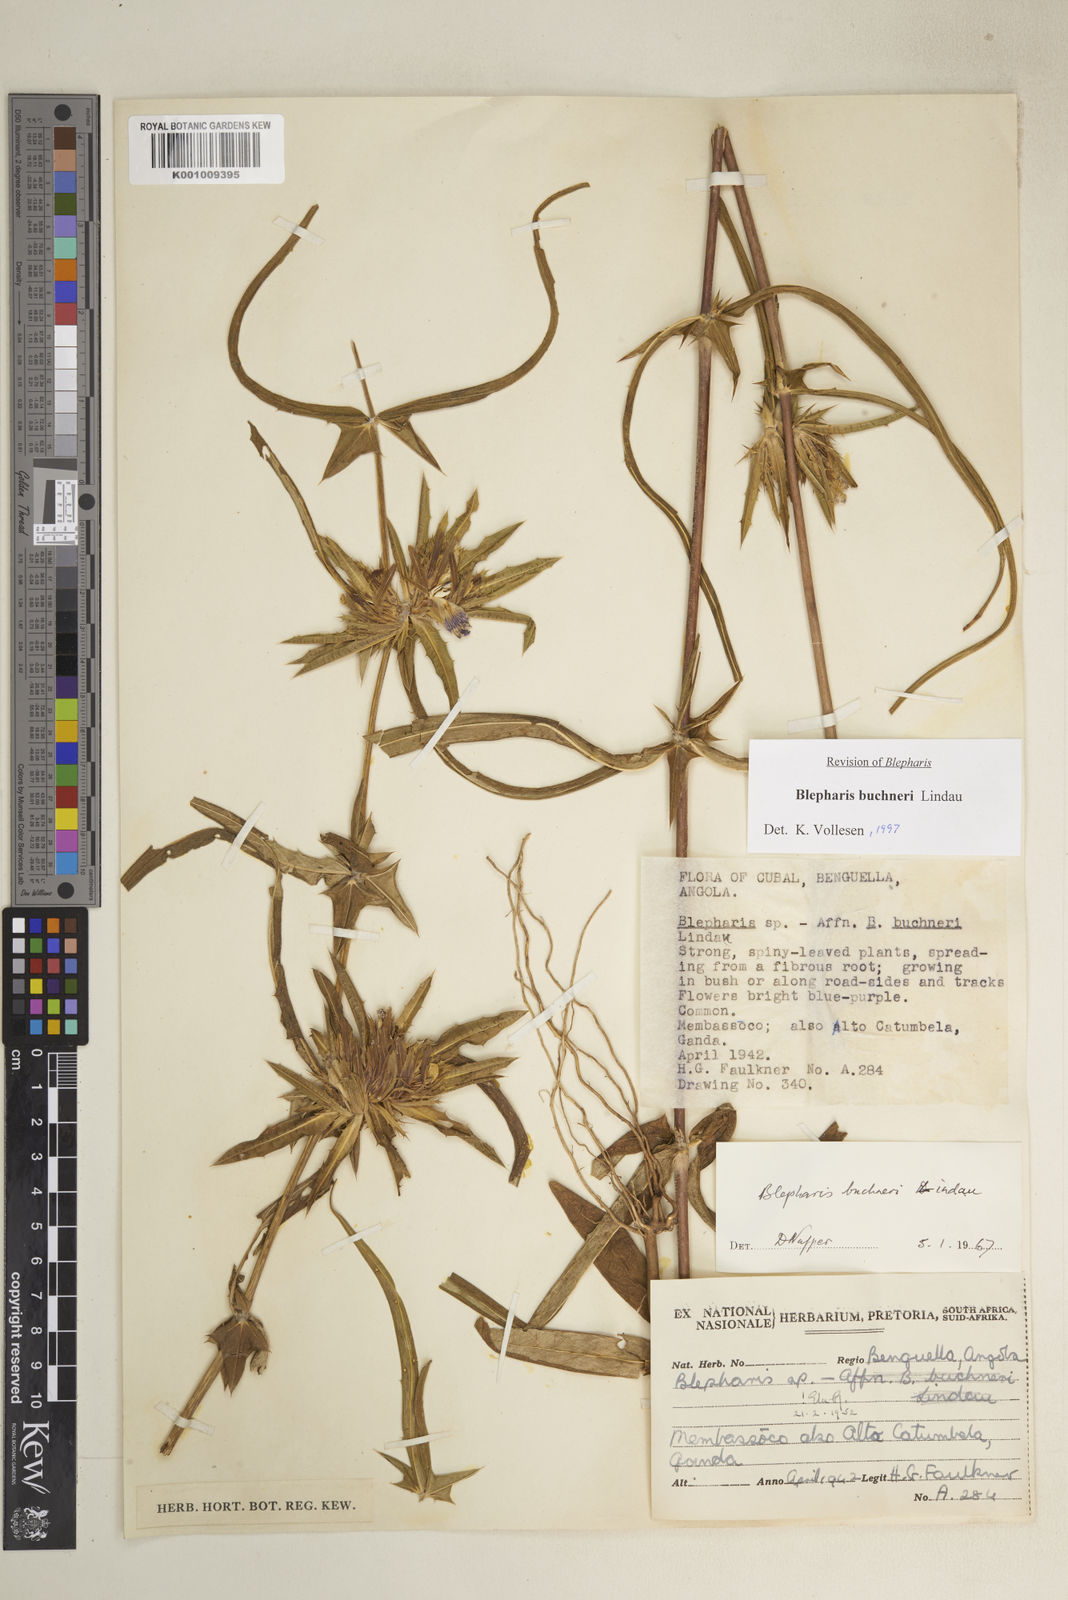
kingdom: Plantae
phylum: Tracheophyta
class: Magnoliopsida
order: Lamiales
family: Acanthaceae
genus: Blepharis
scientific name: Blepharis buchneri
